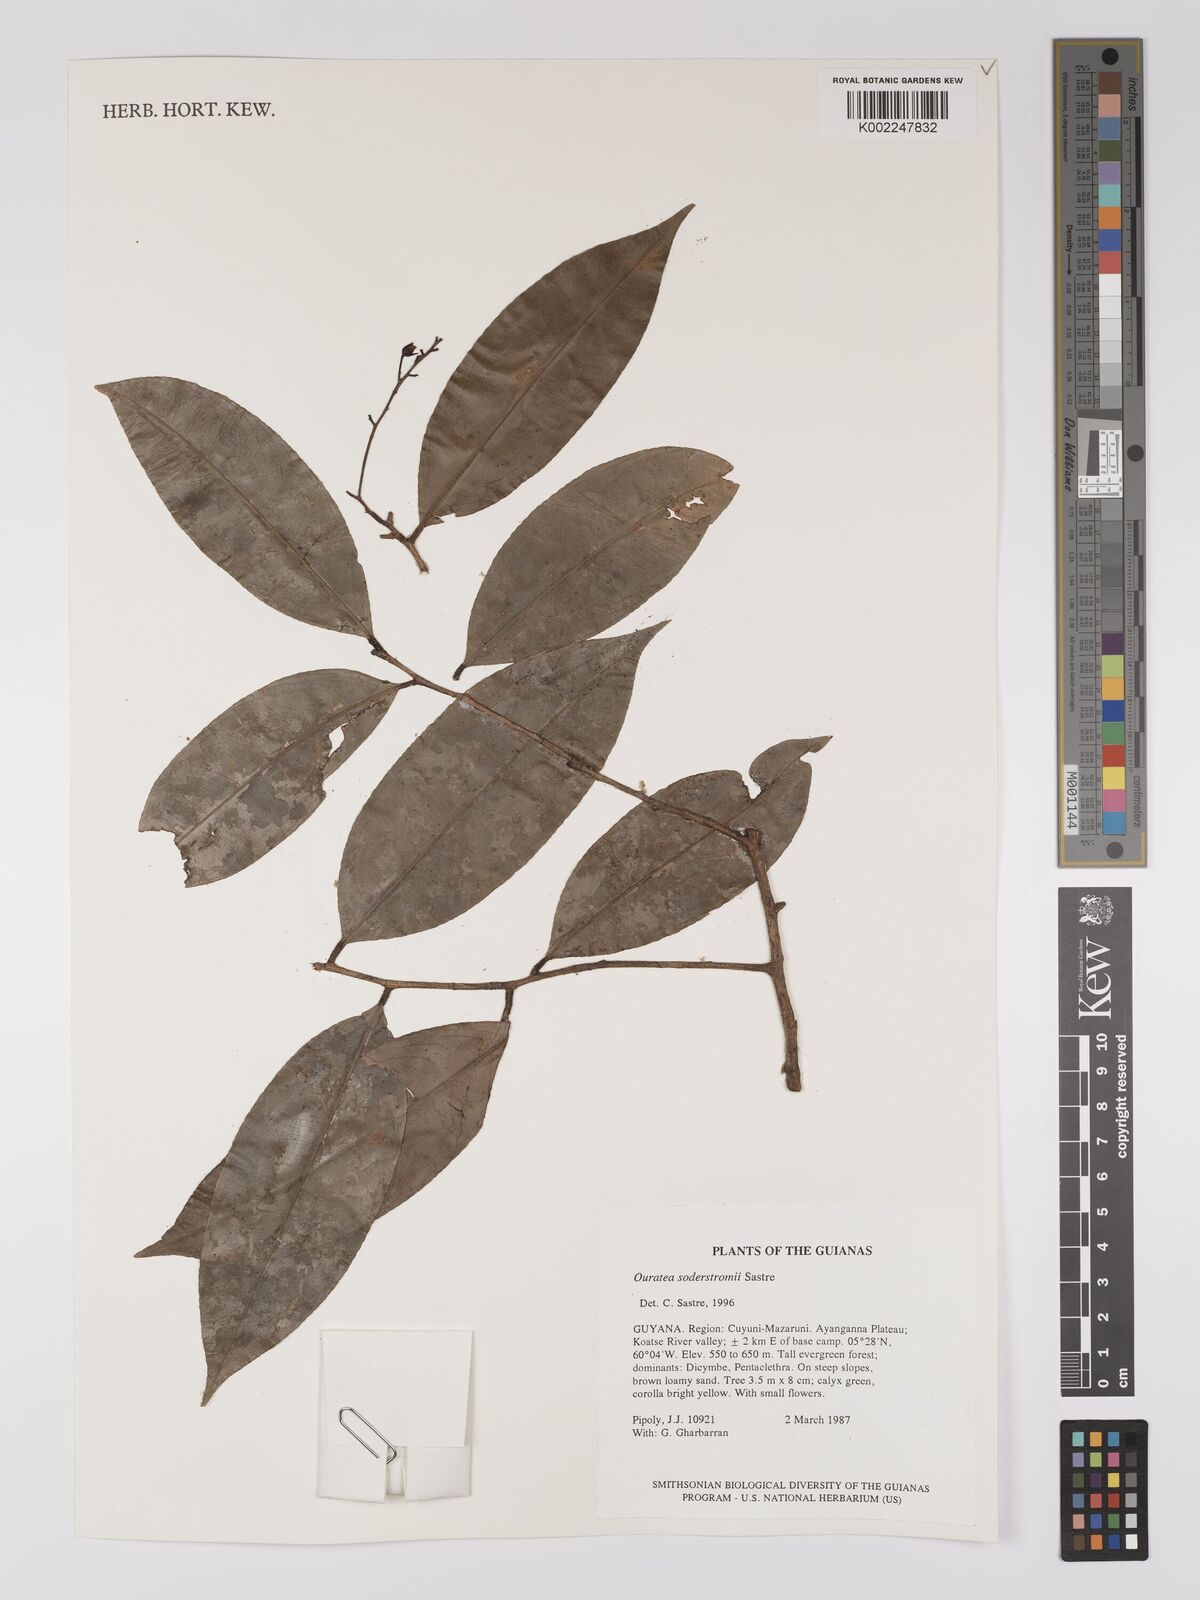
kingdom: Plantae
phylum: Tracheophyta
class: Magnoliopsida
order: Malpighiales
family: Ochnaceae
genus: Ouratea
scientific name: Ouratea soderstromii
